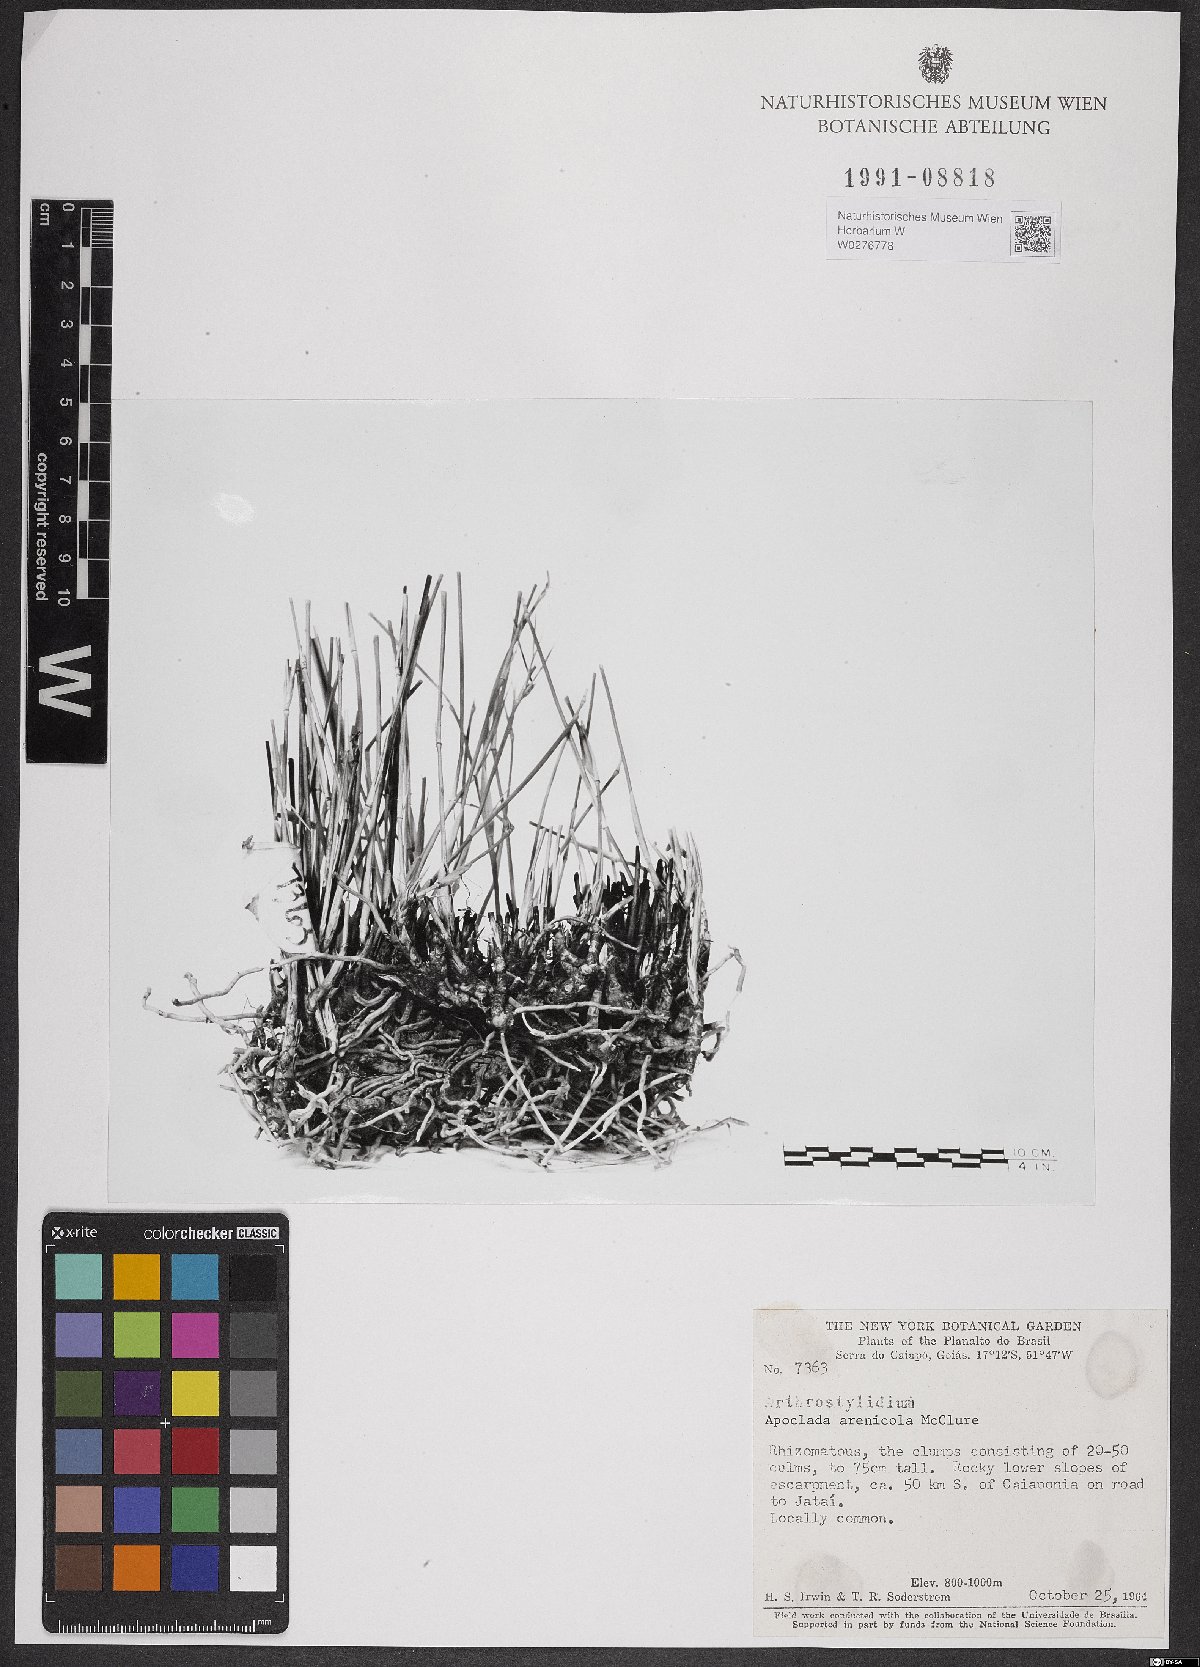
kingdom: Plantae
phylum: Tracheophyta
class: Liliopsida
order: Poales
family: Poaceae
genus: Filgueirasia
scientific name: Filgueirasia arenicola
